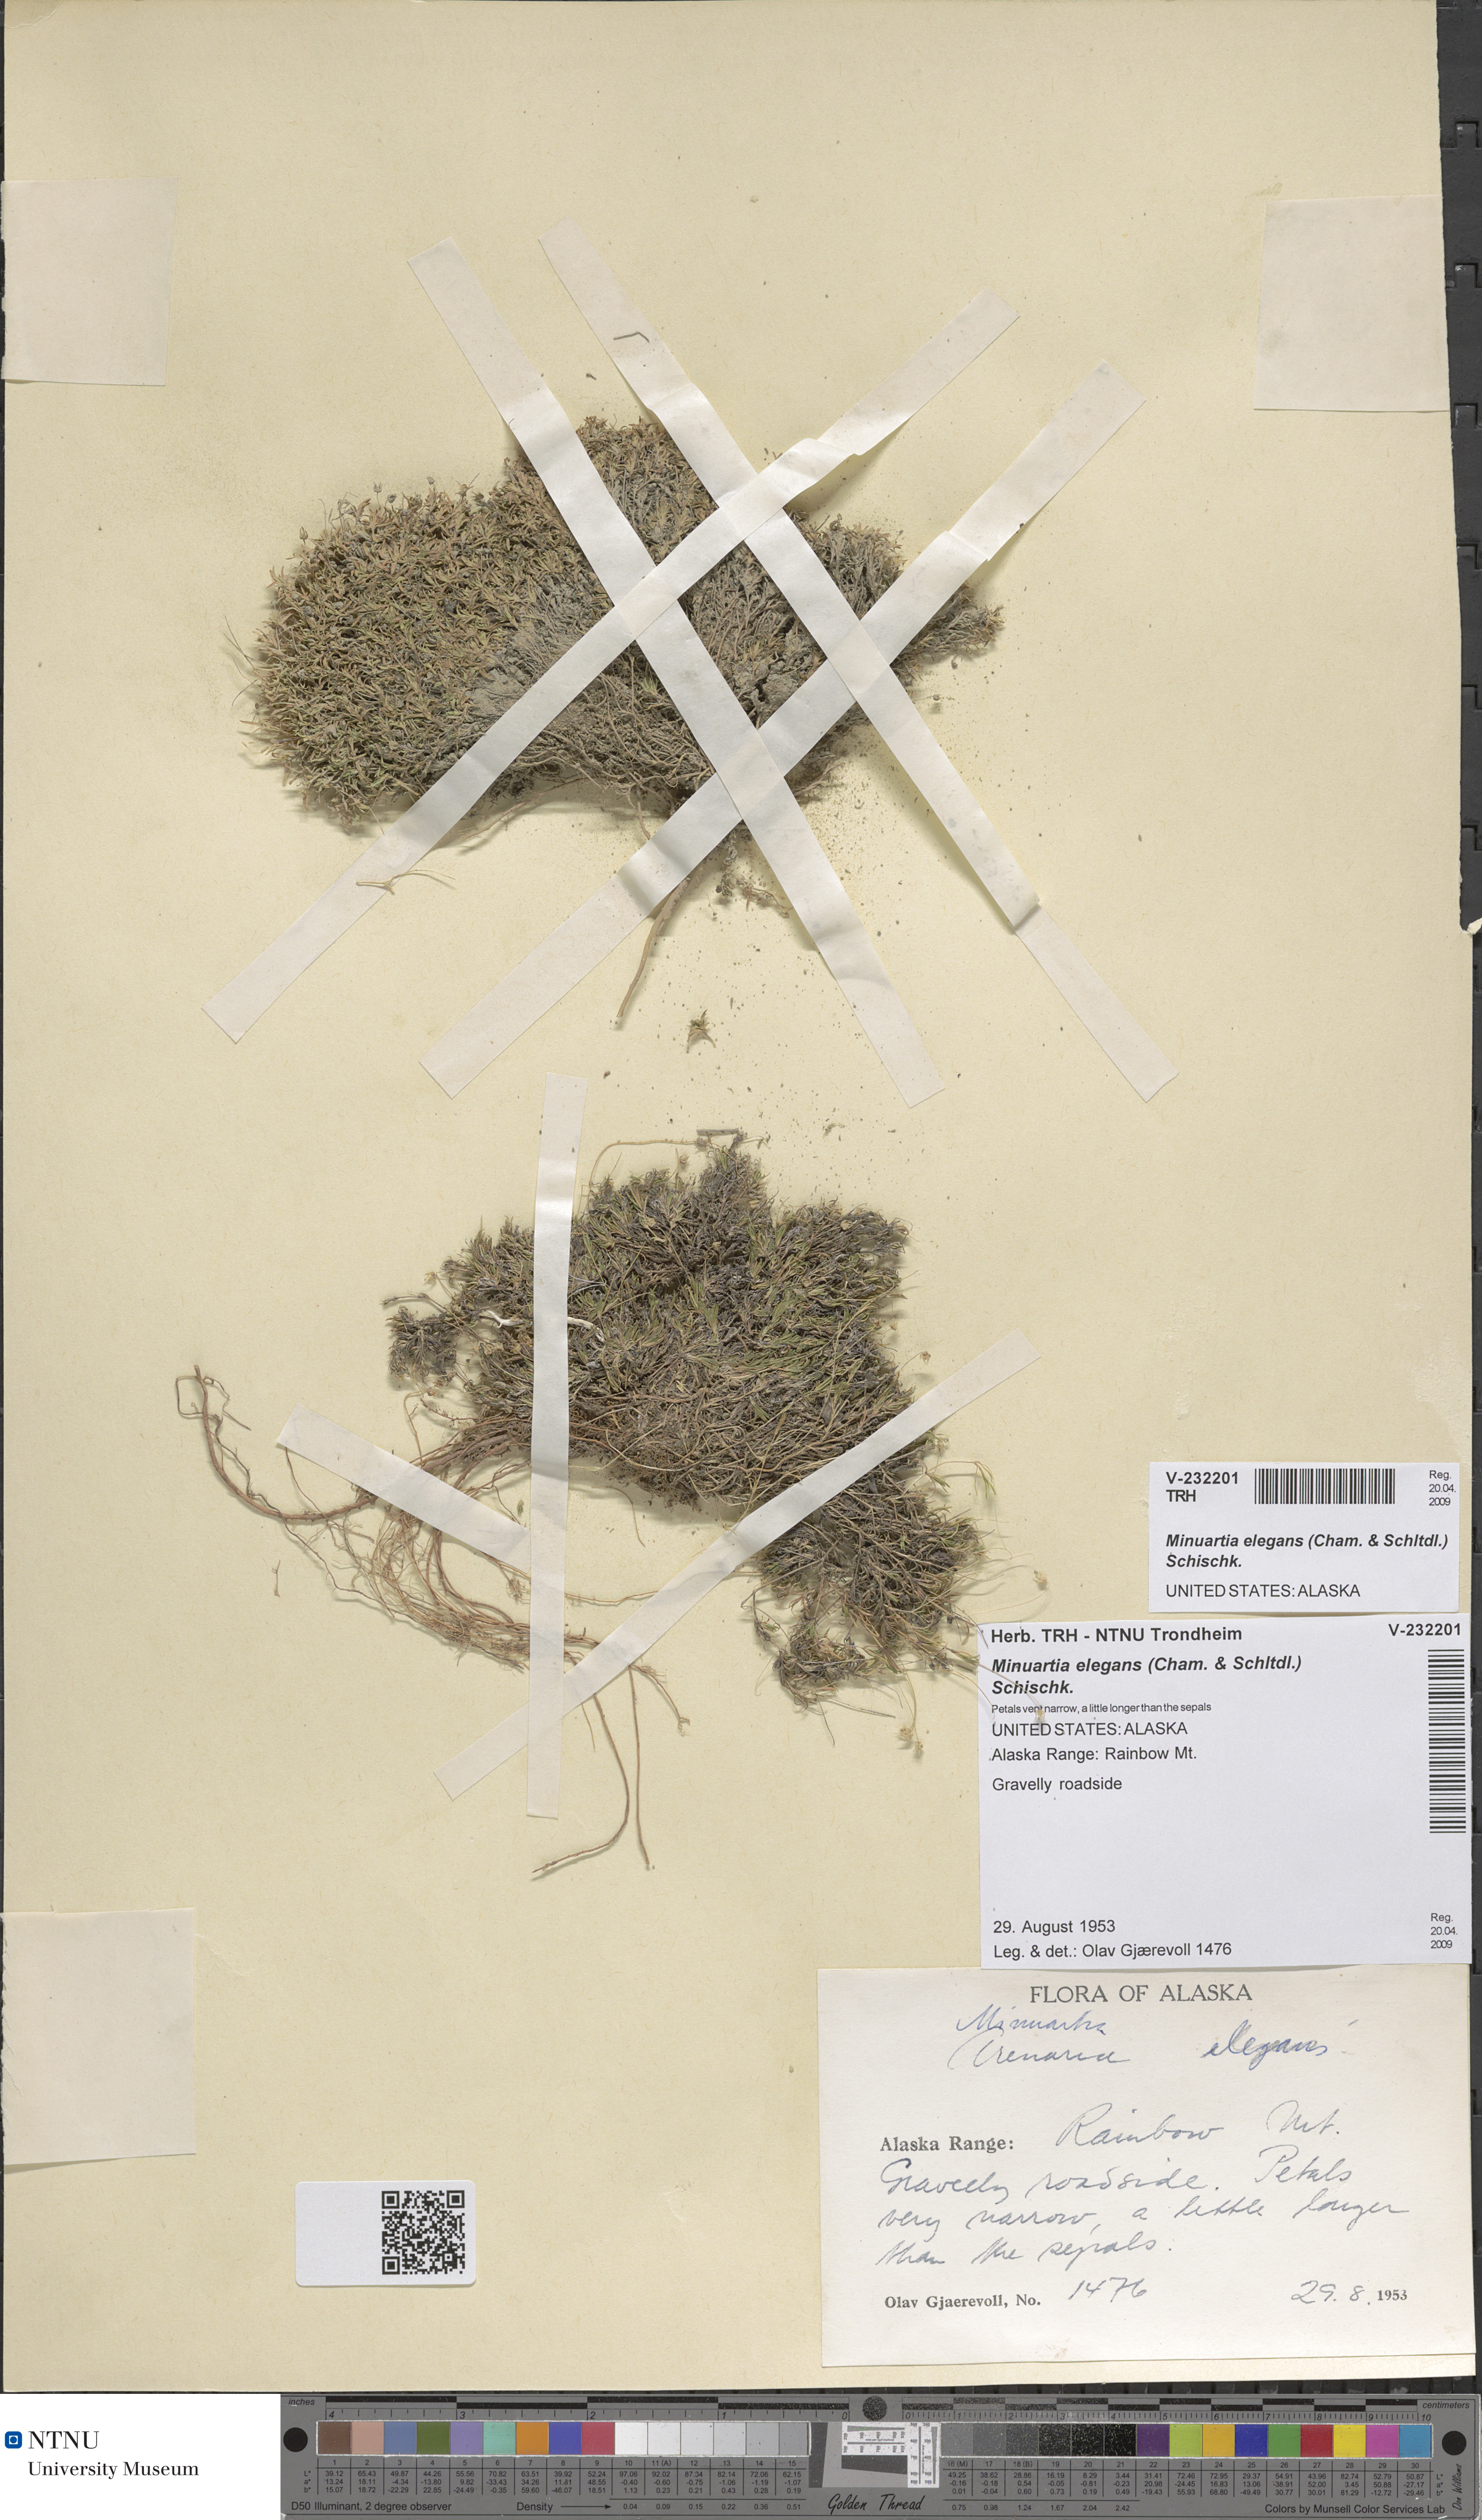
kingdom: Plantae
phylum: Tracheophyta
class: Magnoliopsida
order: Caryophyllales
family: Caryophyllaceae
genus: Sabulina
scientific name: Sabulina elegans
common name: Elegant stitchwort
